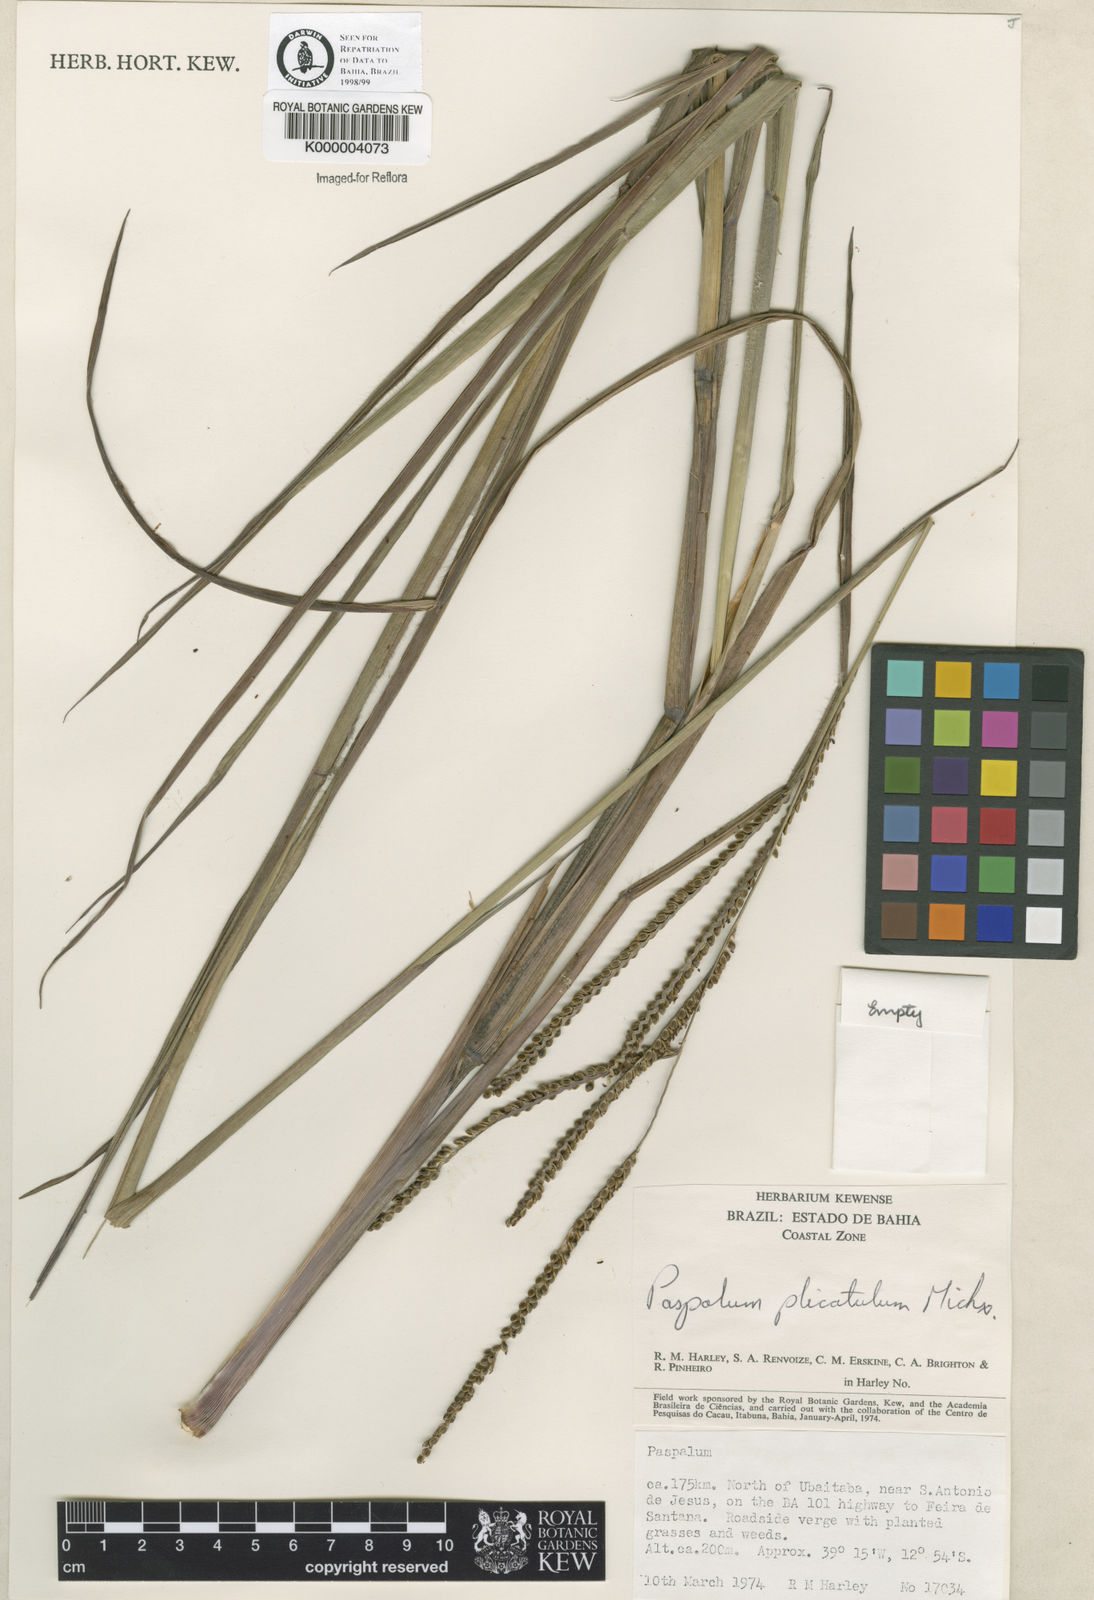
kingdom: Plantae
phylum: Tracheophyta
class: Liliopsida
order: Poales
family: Poaceae
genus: Paspalum
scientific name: Paspalum guenoarum
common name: Wintergreen paspalum
